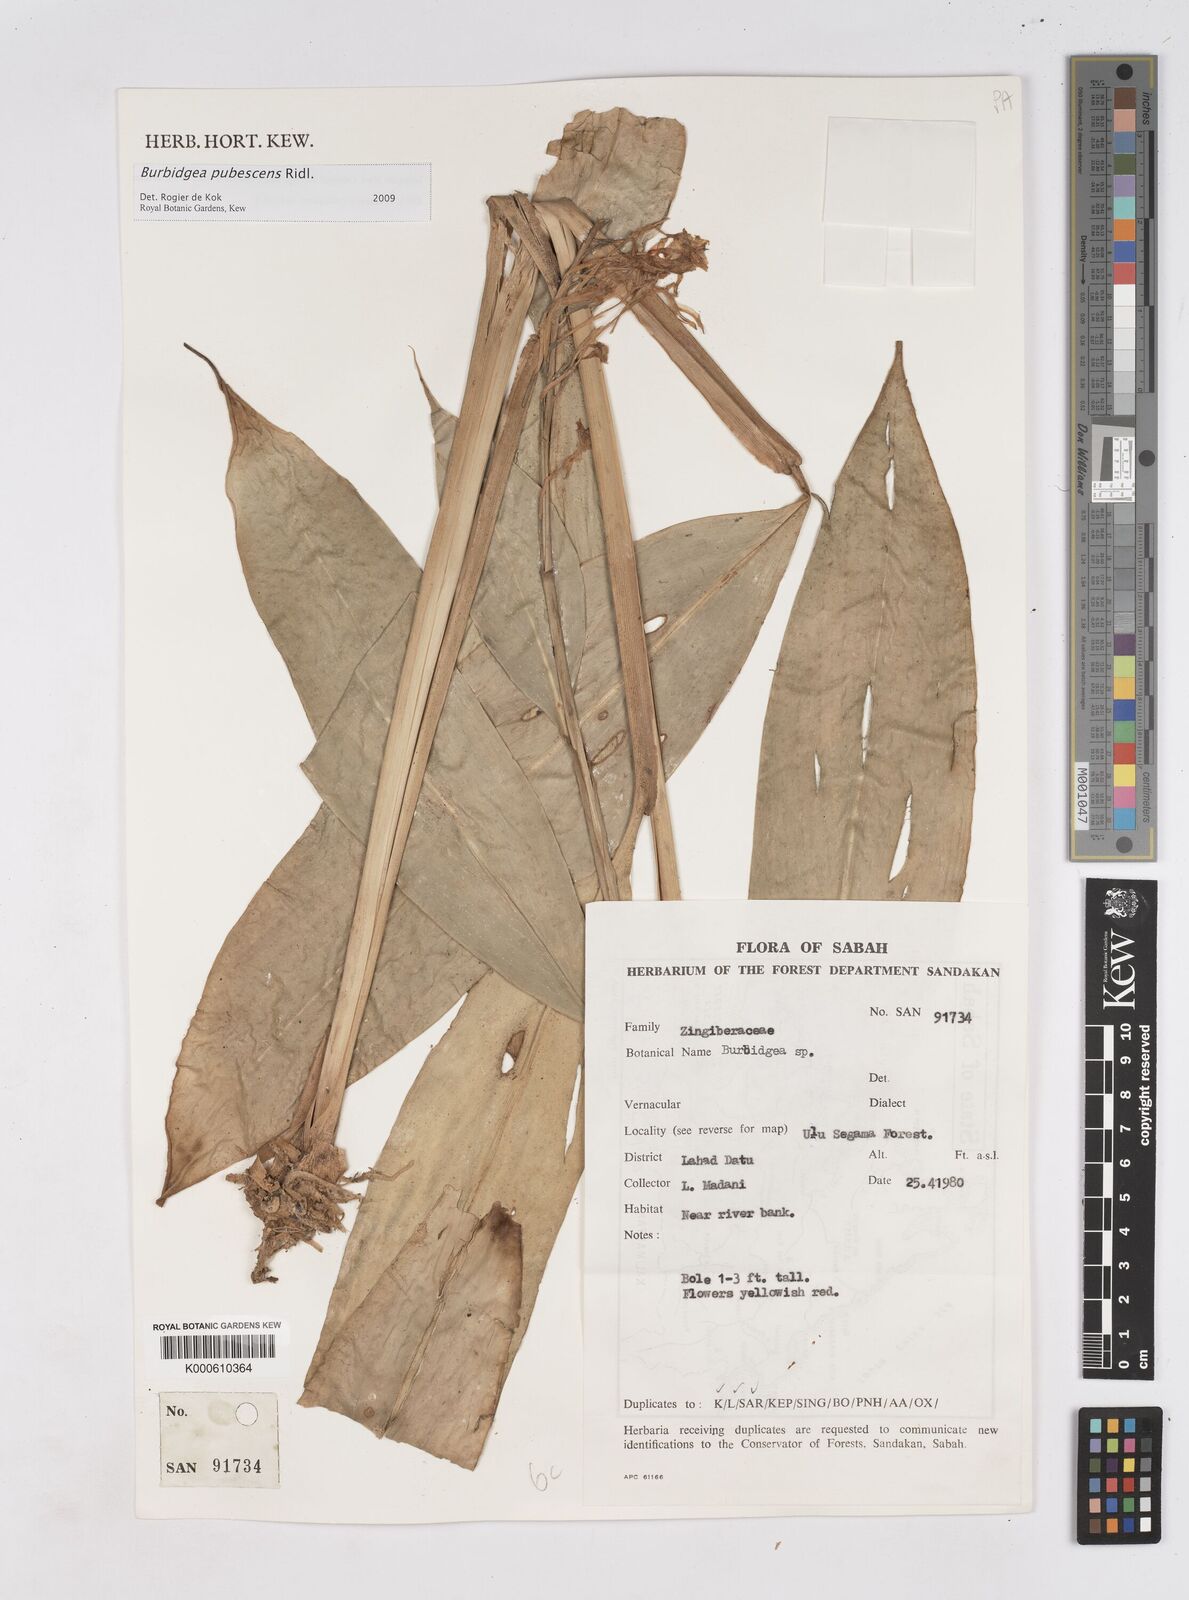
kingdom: Plantae
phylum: Tracheophyta
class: Liliopsida
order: Zingiberales
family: Zingiberaceae
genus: Burbidgea
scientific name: Burbidgea schizocheila
